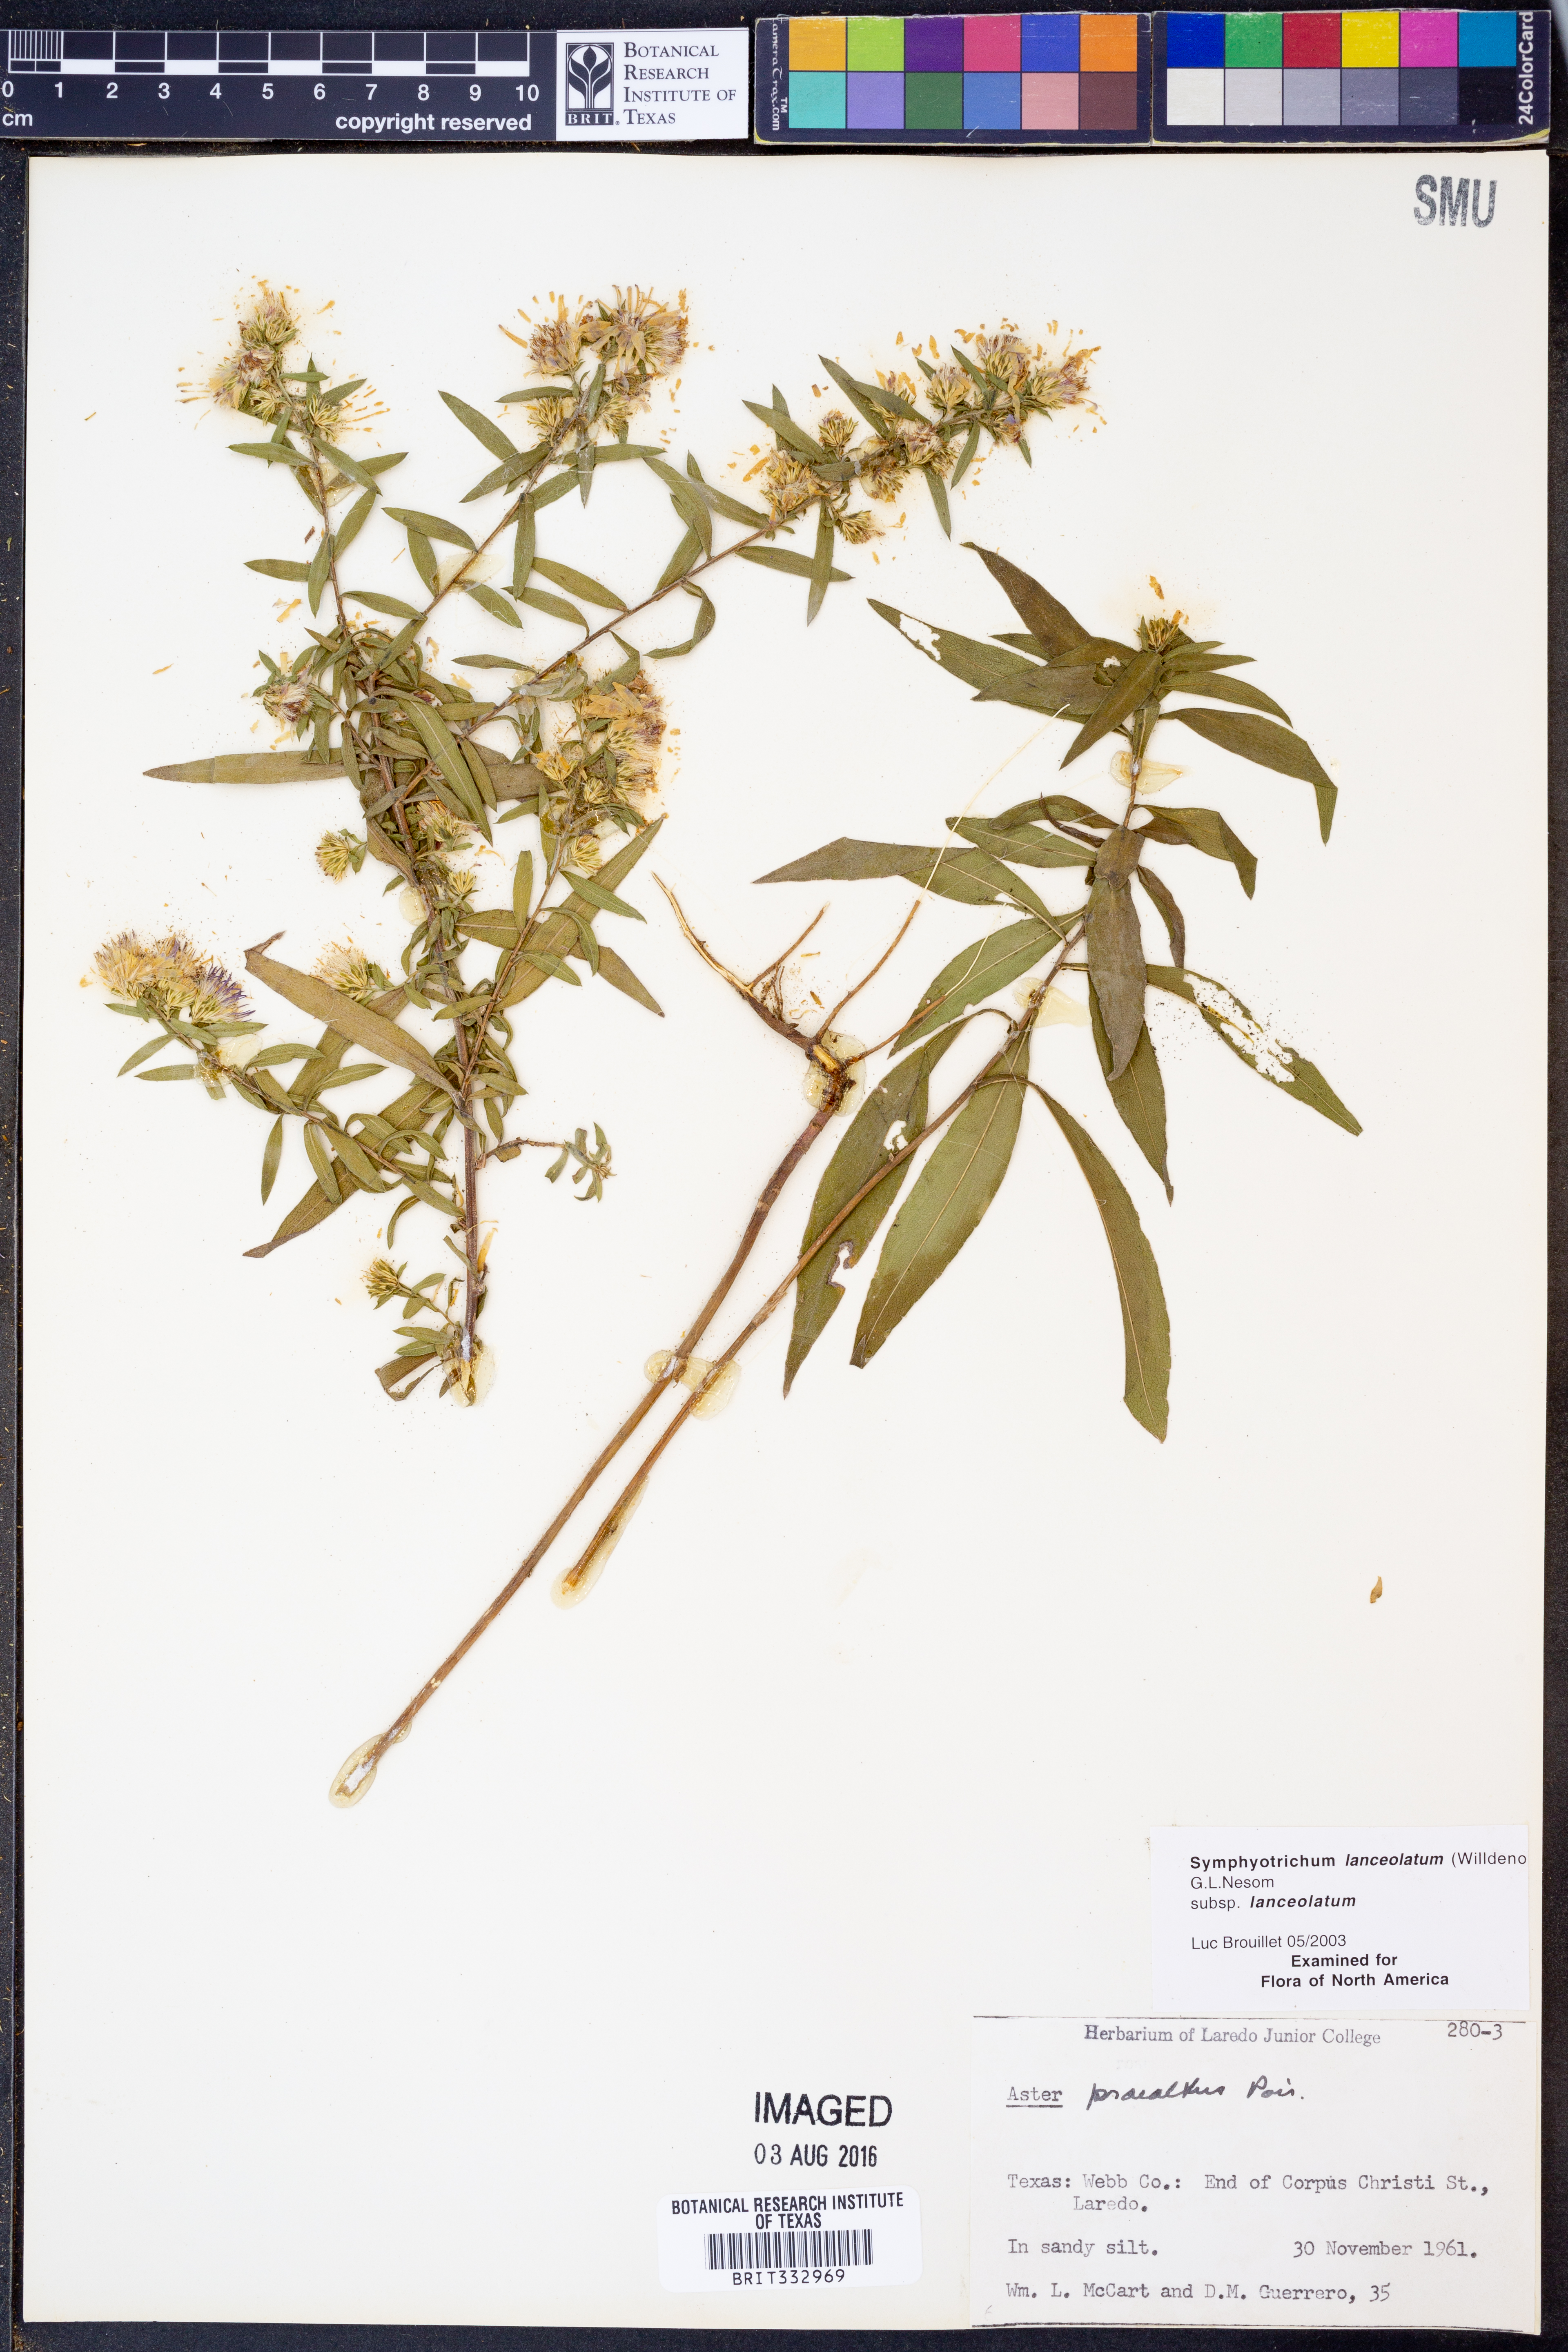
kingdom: Plantae
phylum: Tracheophyta
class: Magnoliopsida
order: Asterales
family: Asteraceae
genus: Symphyotrichum
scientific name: Symphyotrichum lanceolatum
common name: Panicled aster
